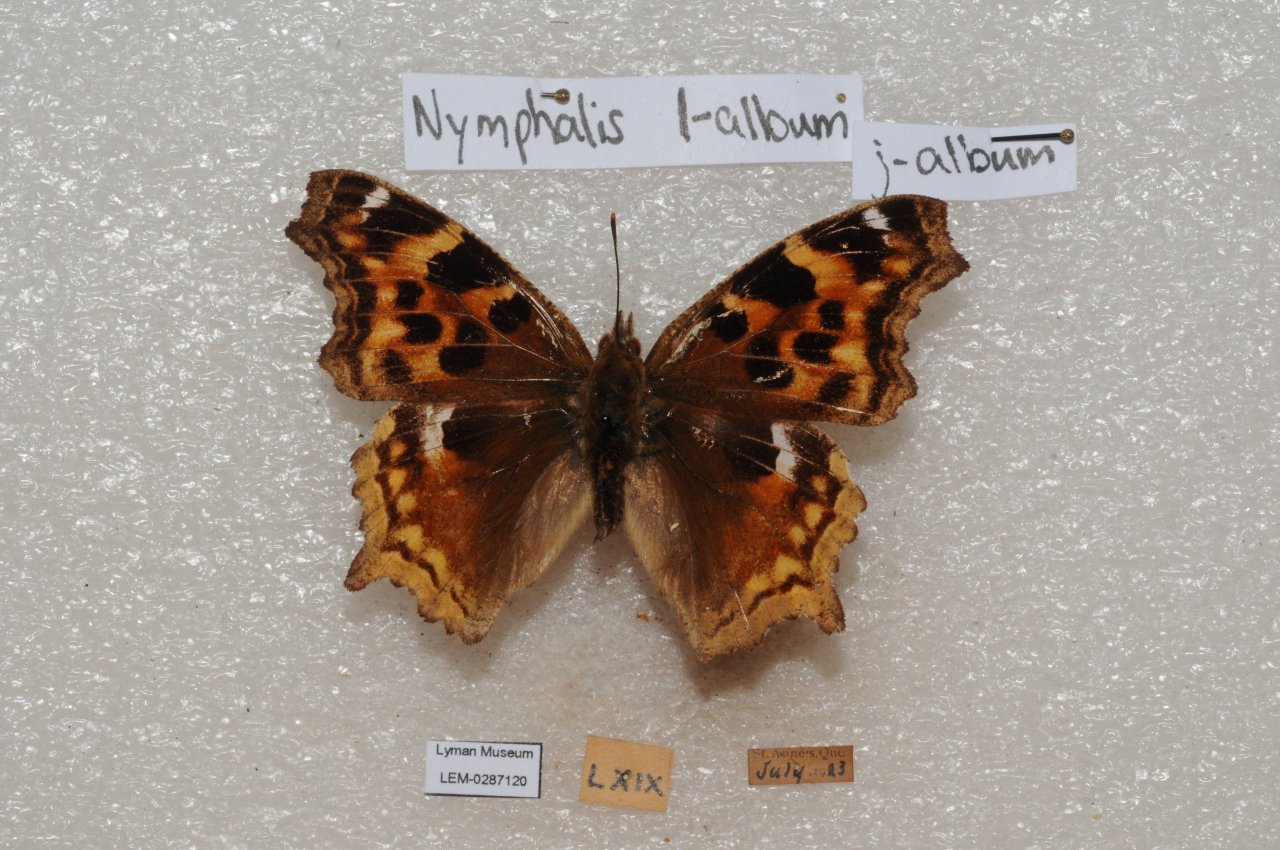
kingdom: Animalia
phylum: Arthropoda
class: Insecta
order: Lepidoptera
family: Nymphalidae
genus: Polygonia
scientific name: Polygonia vaualbum
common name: Compton Tortoiseshell
